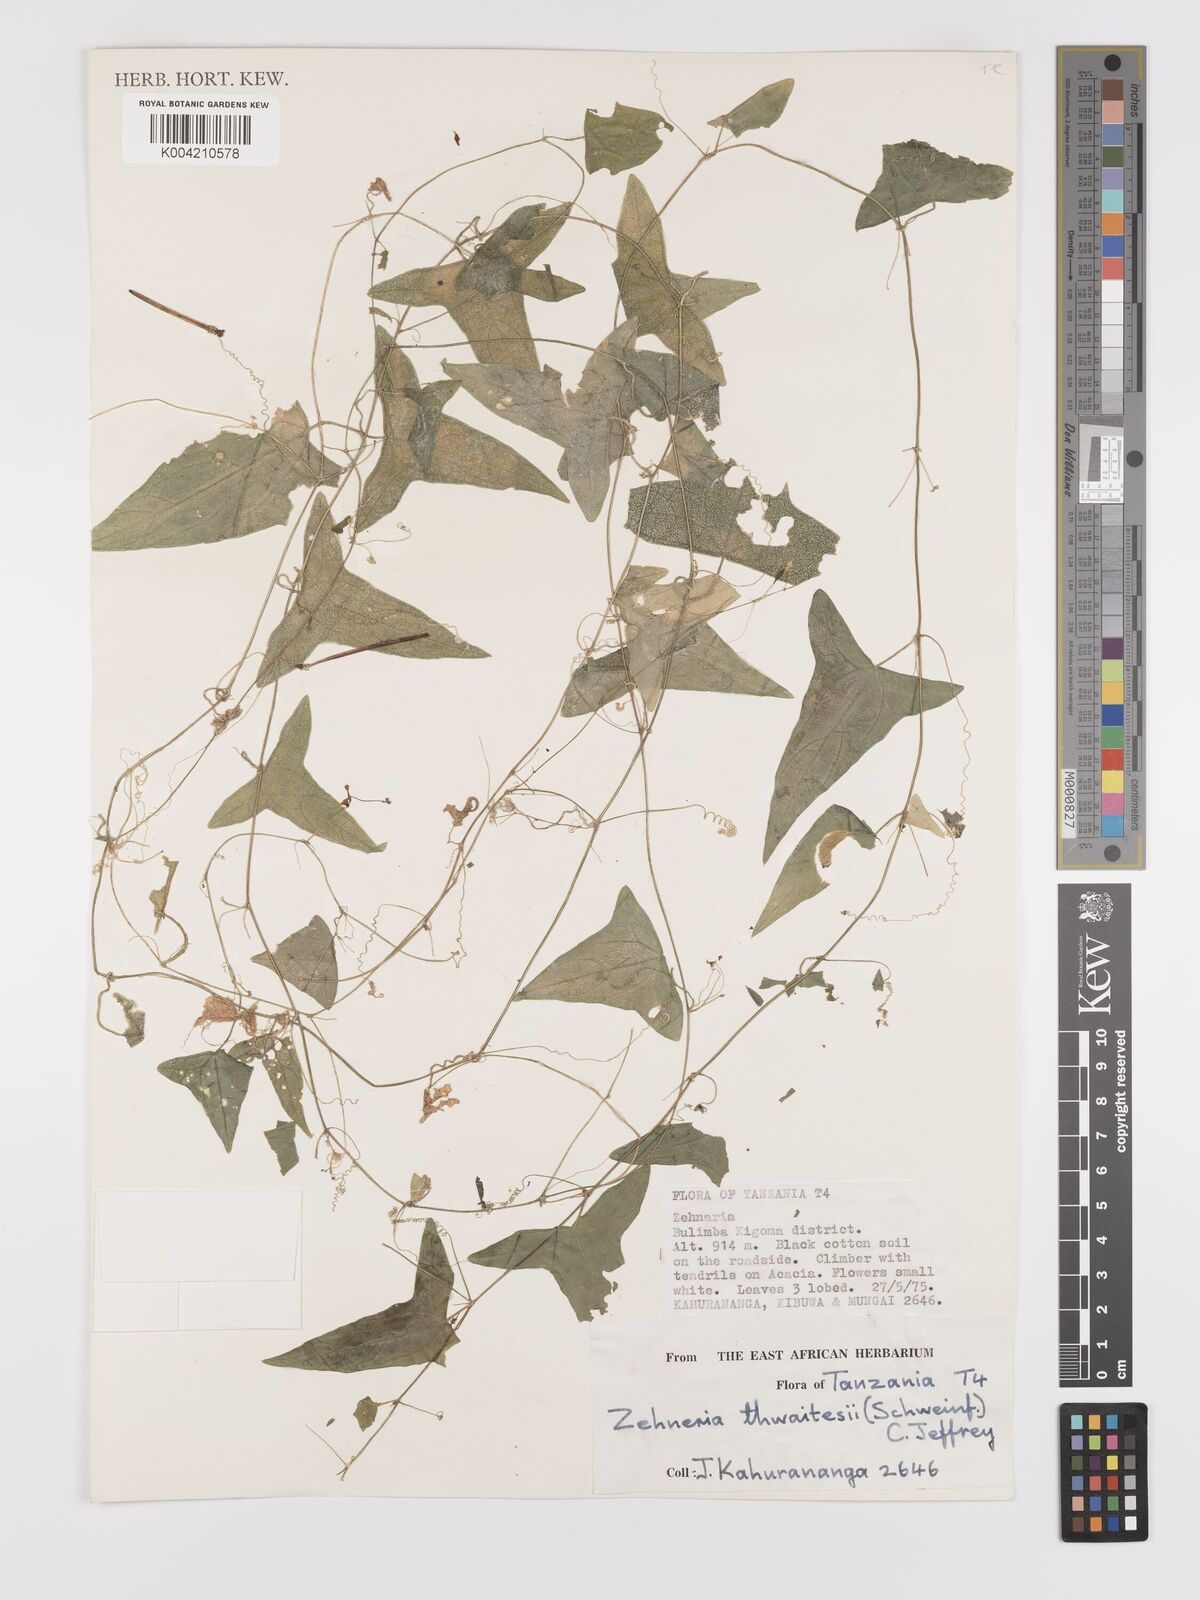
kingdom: Plantae
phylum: Tracheophyta
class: Magnoliopsida
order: Cucurbitales
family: Cucurbitaceae
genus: Zehneria
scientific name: Zehneria thwaitesii
